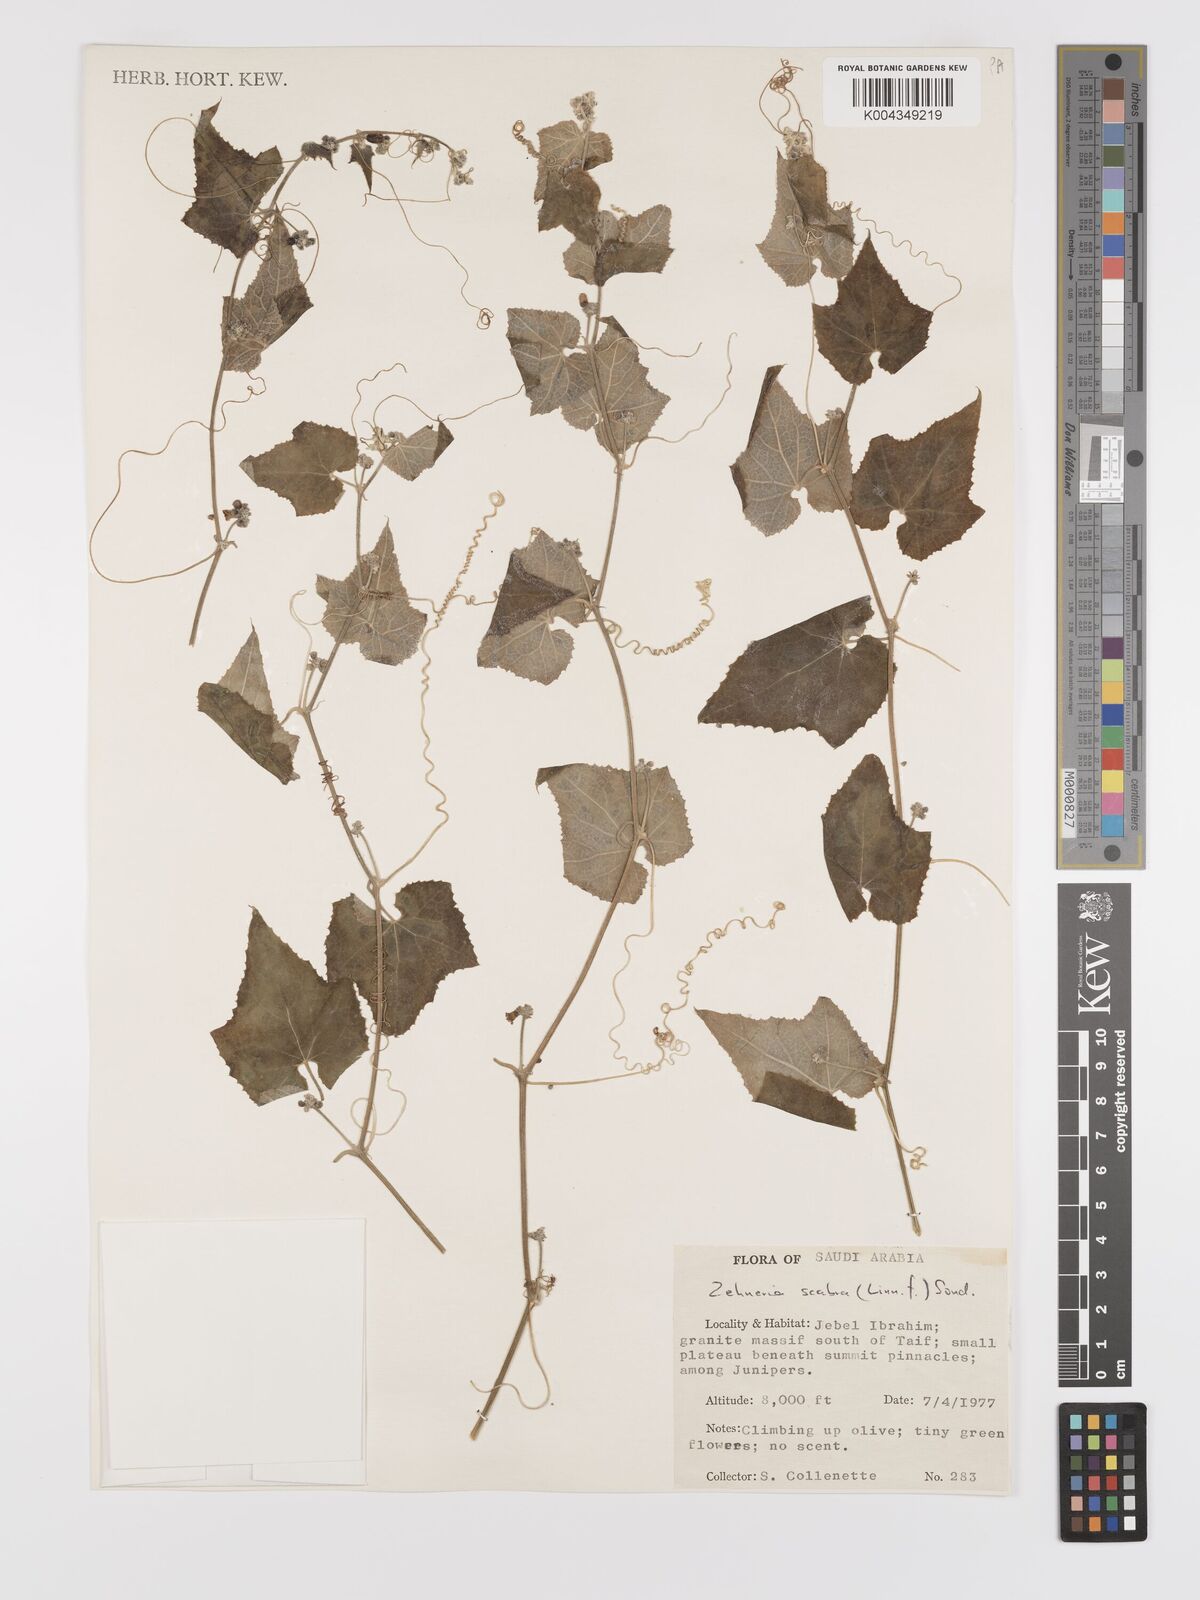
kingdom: Plantae
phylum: Tracheophyta
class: Magnoliopsida
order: Cucurbitales
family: Cucurbitaceae
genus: Zehneria
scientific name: Zehneria scabra
